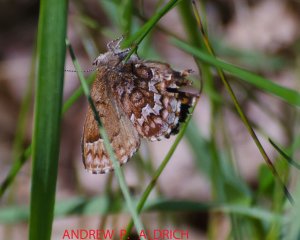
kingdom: Animalia
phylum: Arthropoda
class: Insecta
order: Lepidoptera
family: Lycaenidae
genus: Incisalia
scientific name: Incisalia niphon
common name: Eastern Pine Elfin
